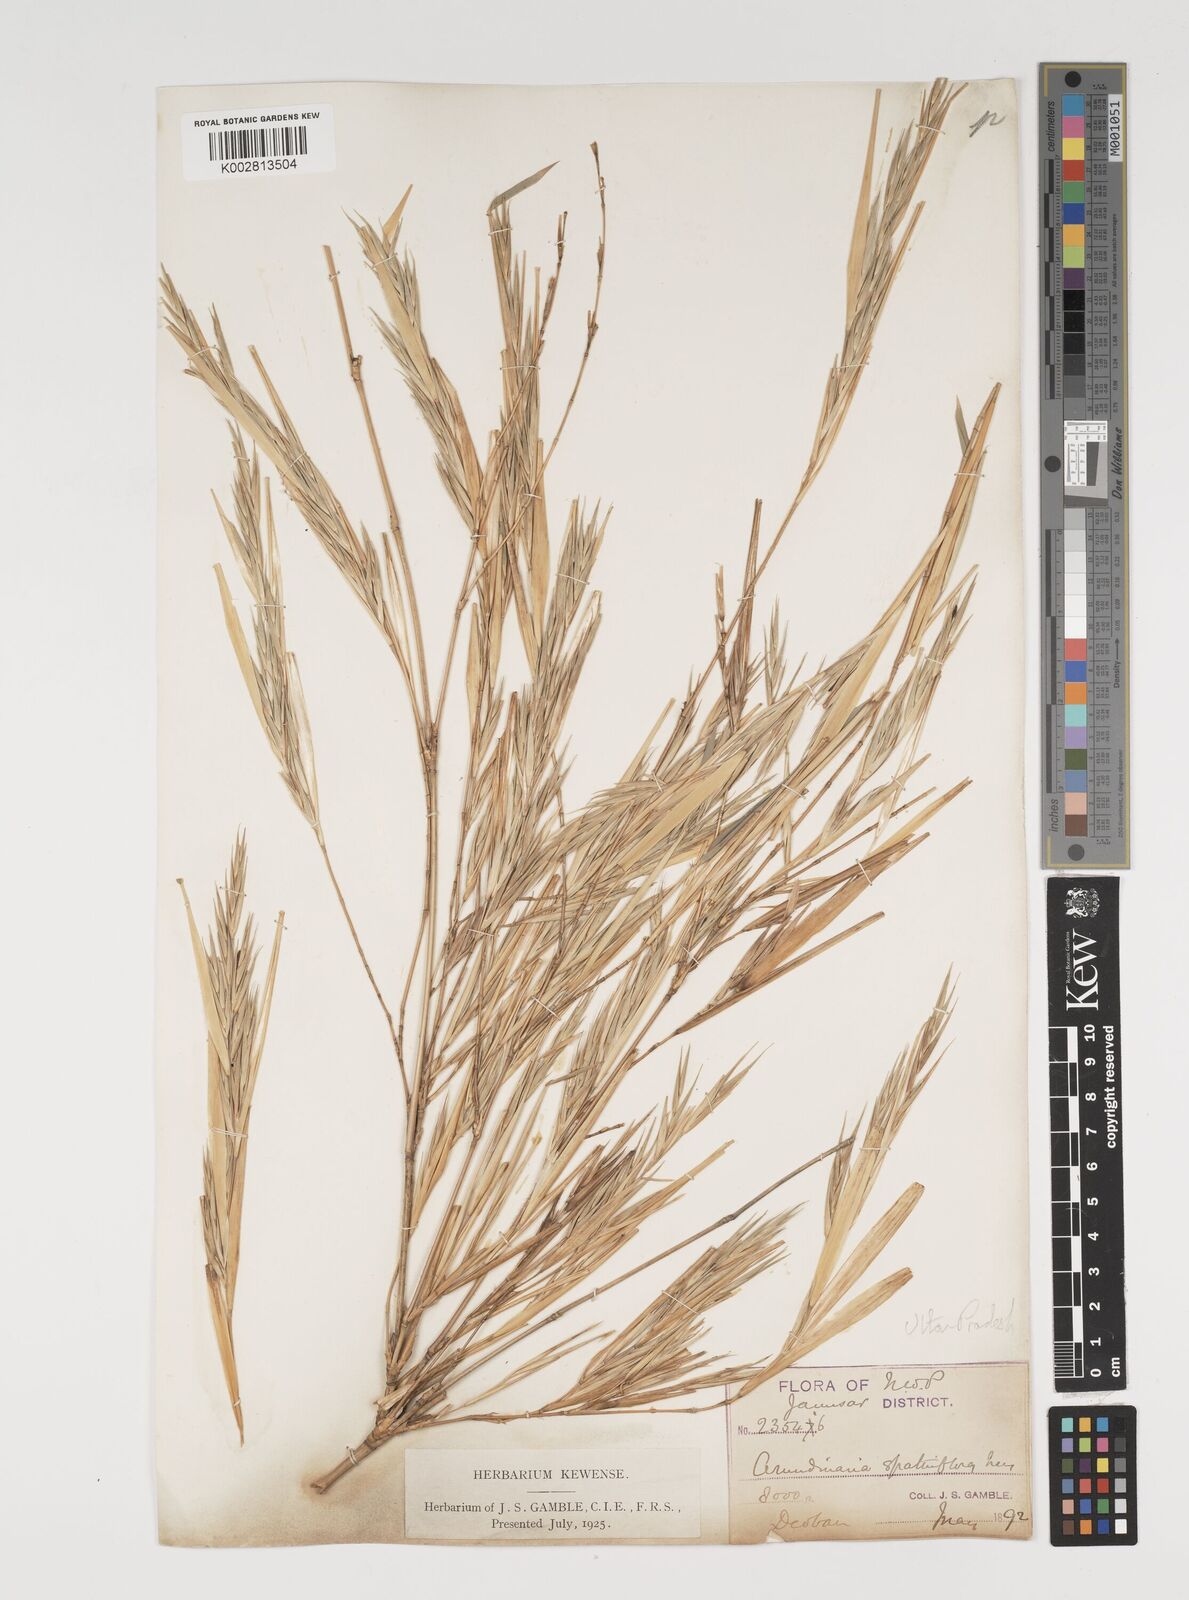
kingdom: Plantae
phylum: Tracheophyta
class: Liliopsida
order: Poales
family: Poaceae
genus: Thamnocalamus
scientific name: Thamnocalamus spathiflorus
